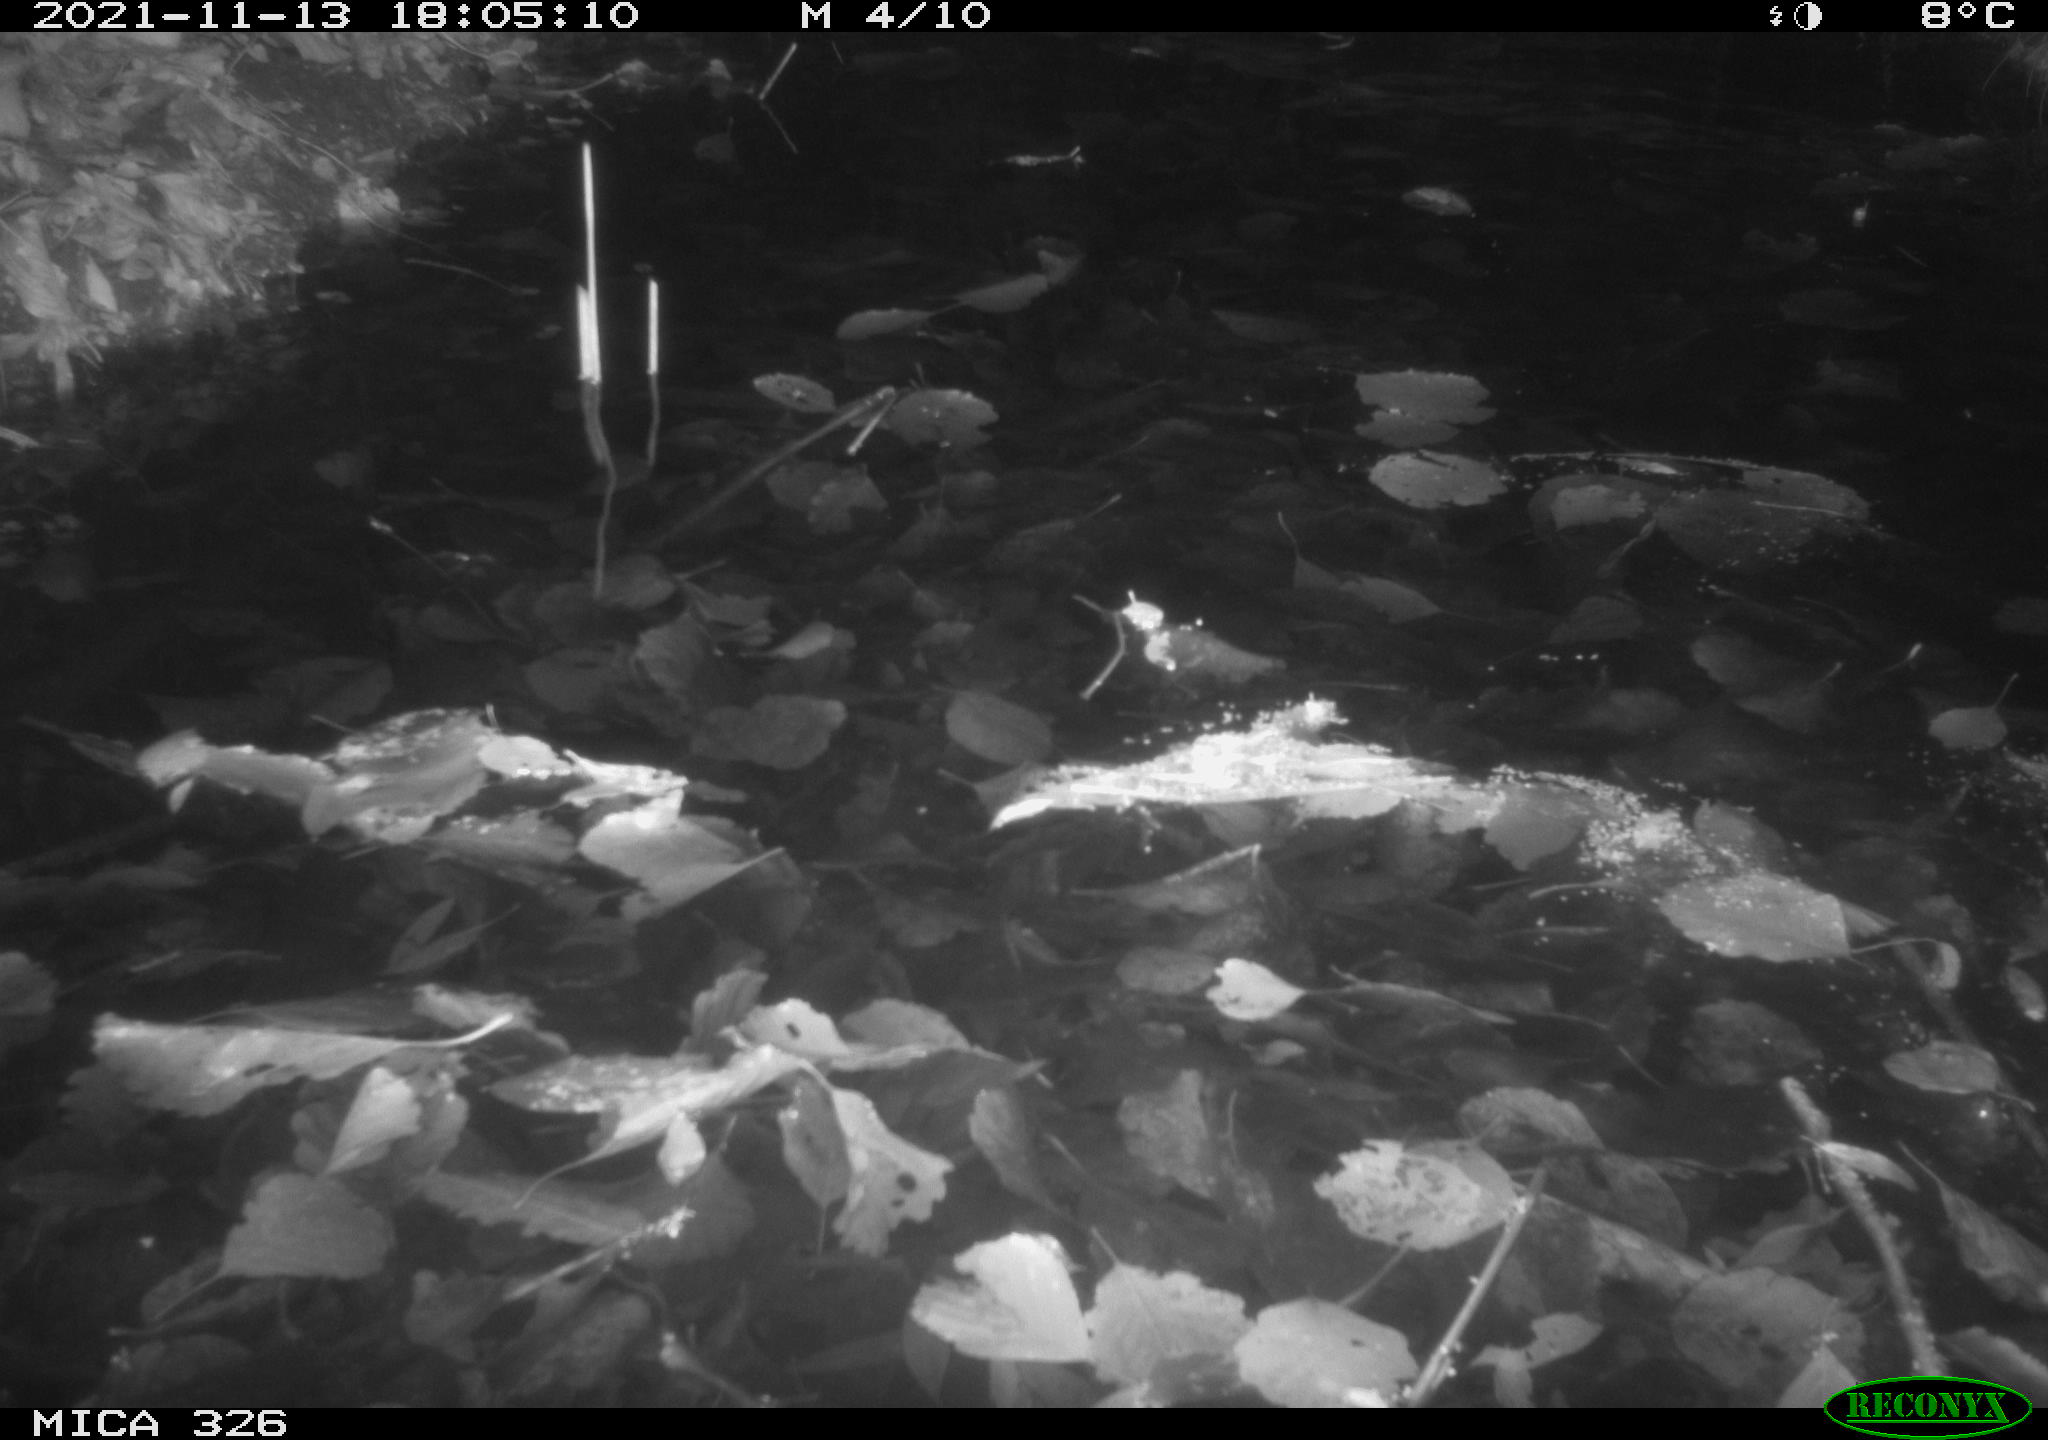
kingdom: Animalia
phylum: Chordata
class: Mammalia
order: Rodentia
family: Cricetidae
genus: Ondatra
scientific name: Ondatra zibethicus
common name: Muskrat
